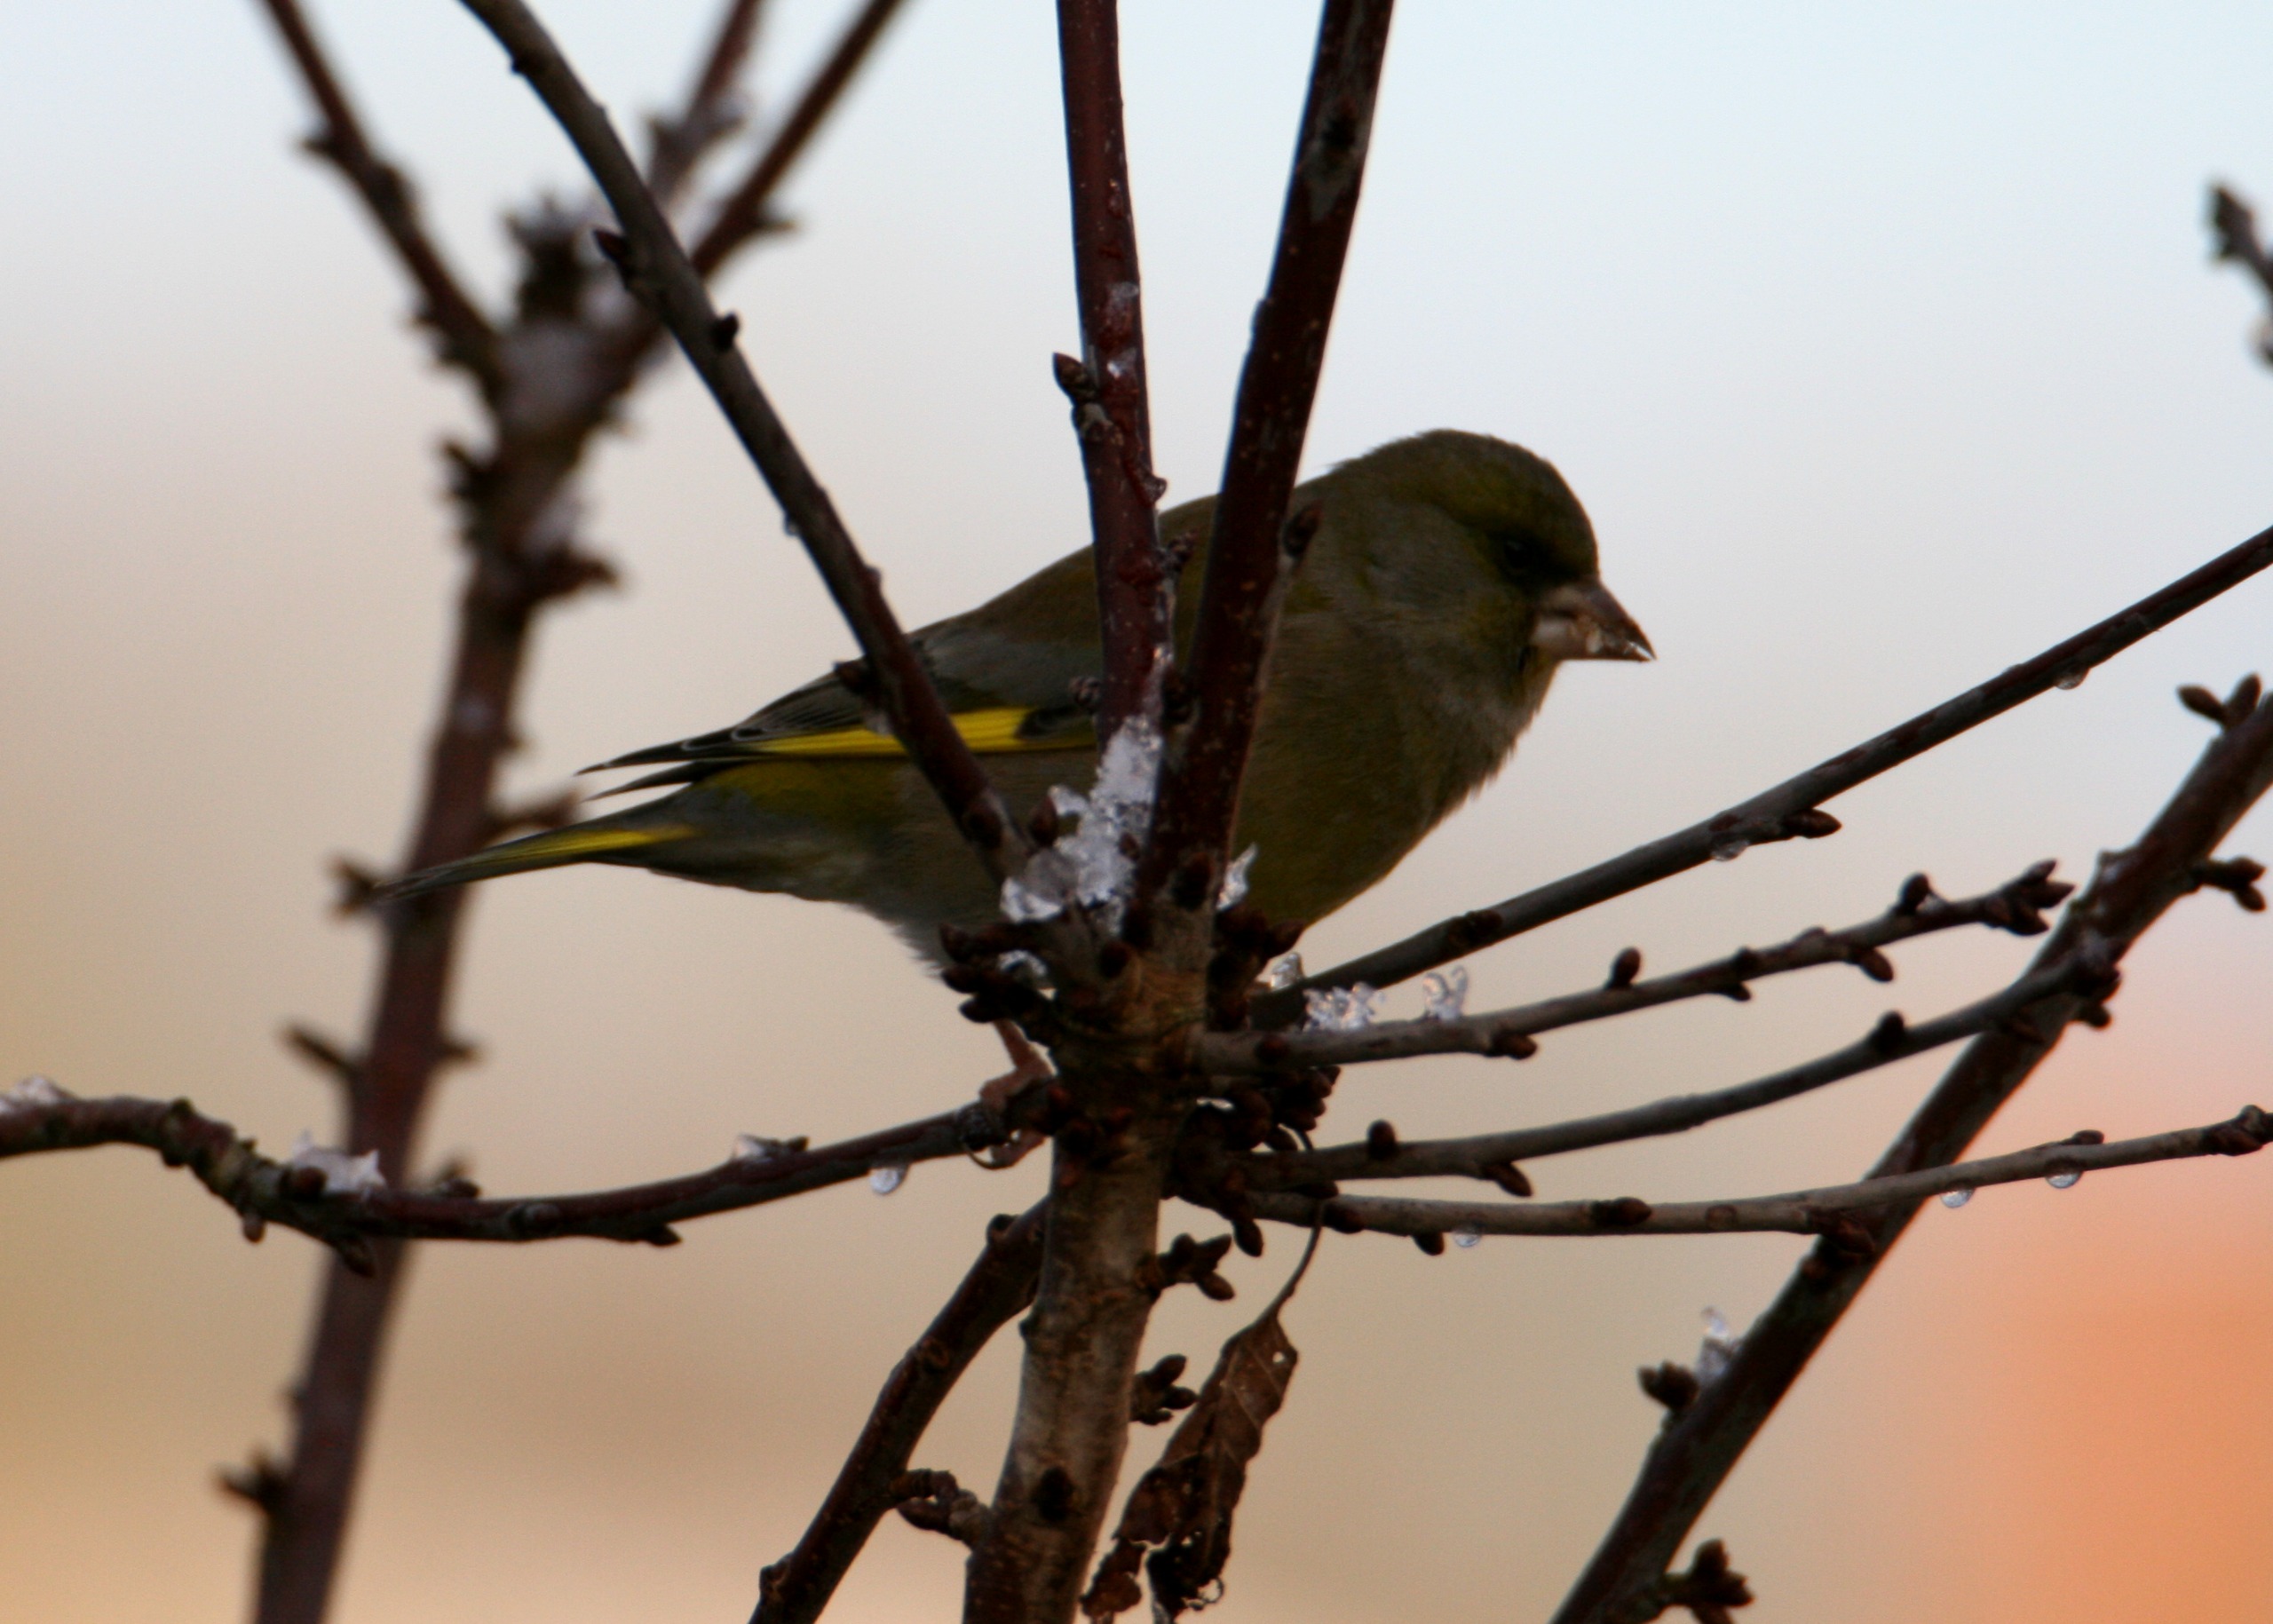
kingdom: Plantae
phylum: Tracheophyta
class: Liliopsida
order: Poales
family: Poaceae
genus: Chloris
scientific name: Chloris chloris
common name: Grønirisk
